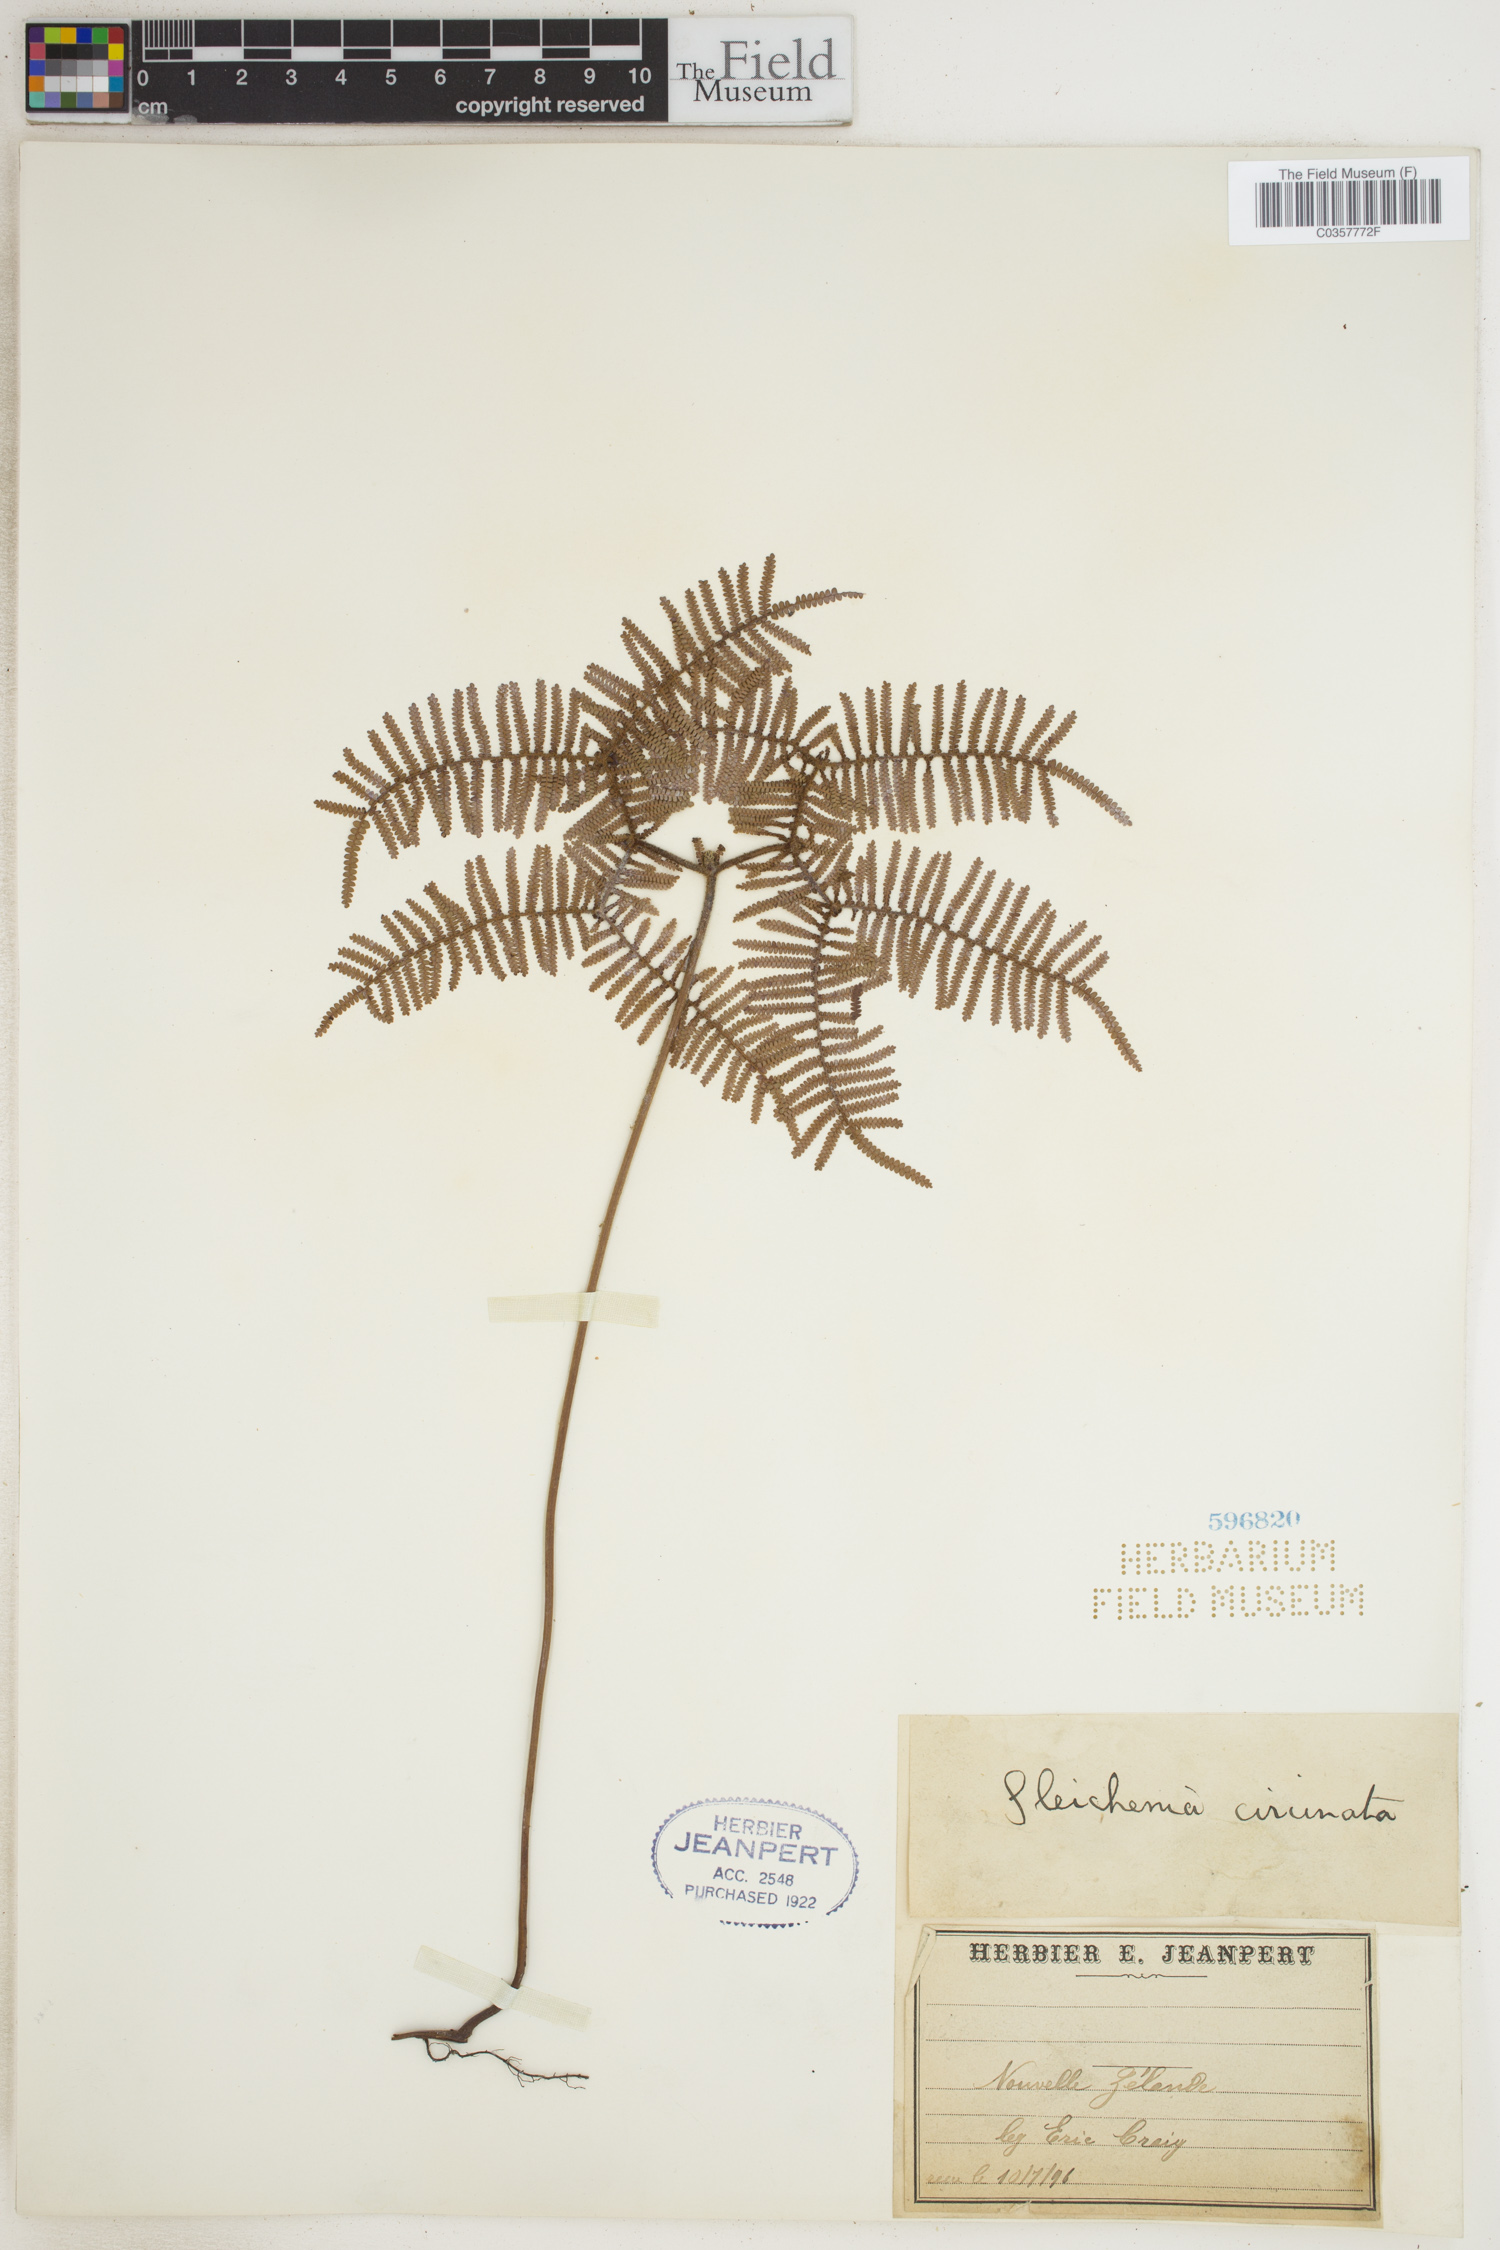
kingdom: Plantae
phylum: Tracheophyta
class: Polypodiopsida
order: Gleicheniales
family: Gleicheniaceae
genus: Gleichenia
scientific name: Gleichenia circinnata
